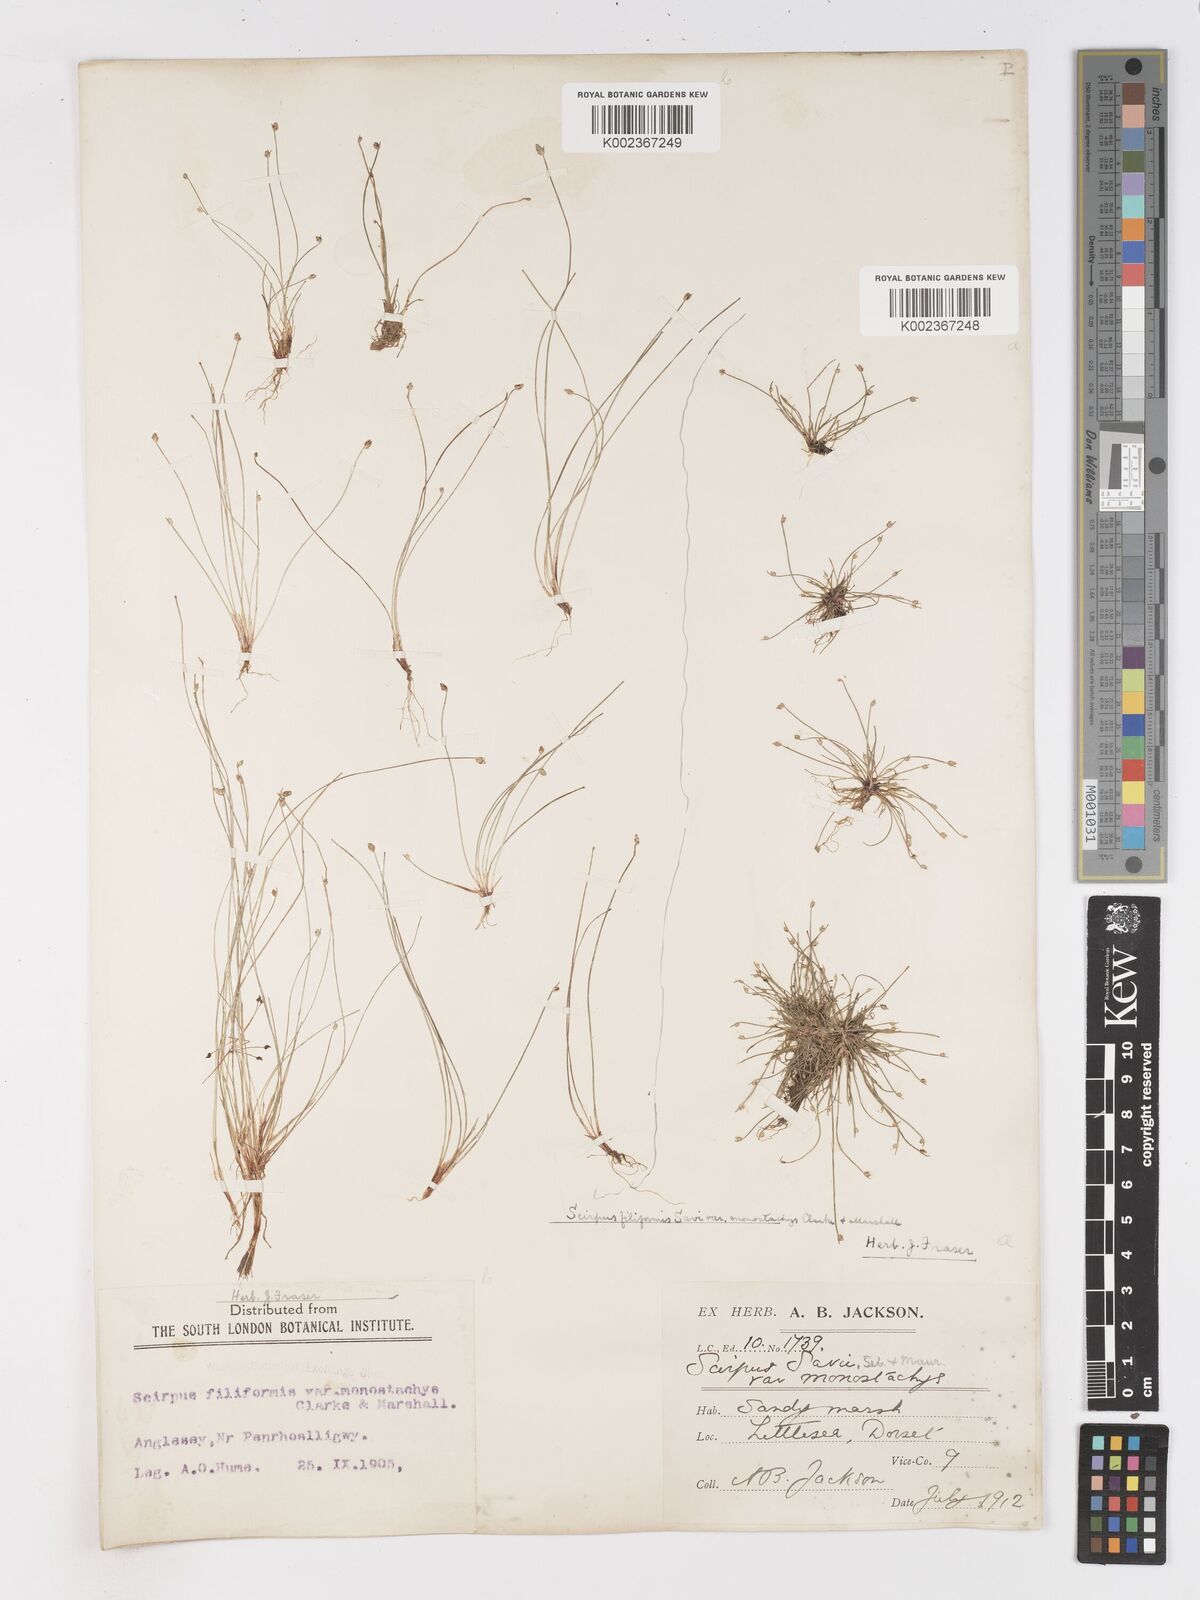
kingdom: Plantae
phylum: Tracheophyta
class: Liliopsida
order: Poales
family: Cyperaceae
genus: Isolepis
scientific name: Isolepis cernua
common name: Slender club-rush
